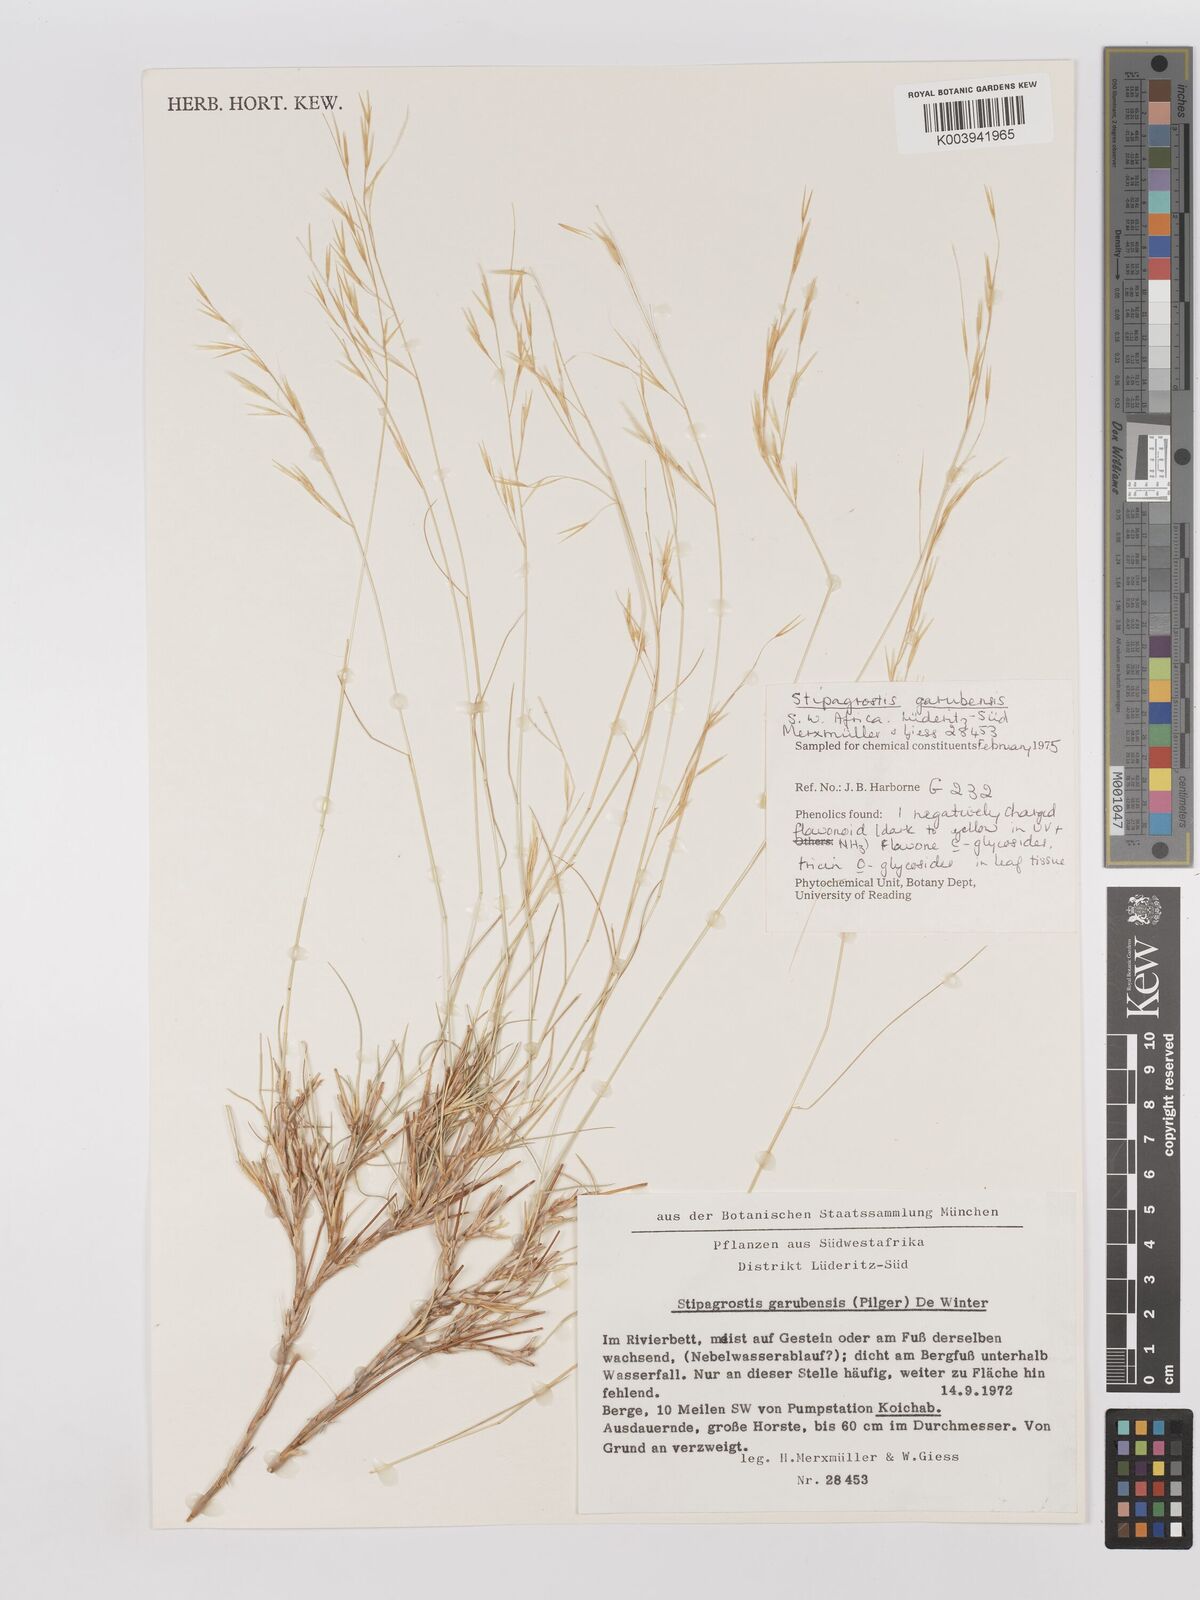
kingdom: Plantae
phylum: Tracheophyta
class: Liliopsida
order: Poales
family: Poaceae
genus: Stipagrostis
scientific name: Stipagrostis garubensis
